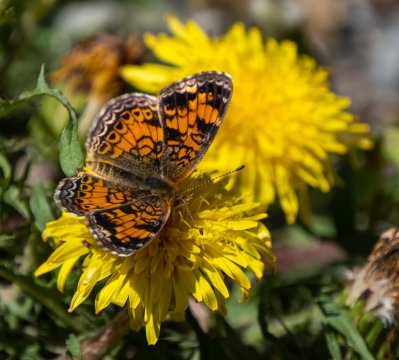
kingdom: Animalia
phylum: Arthropoda
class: Insecta
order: Lepidoptera
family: Nymphalidae
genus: Phyciodes
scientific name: Phyciodes tharos
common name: Pearl Crescent
